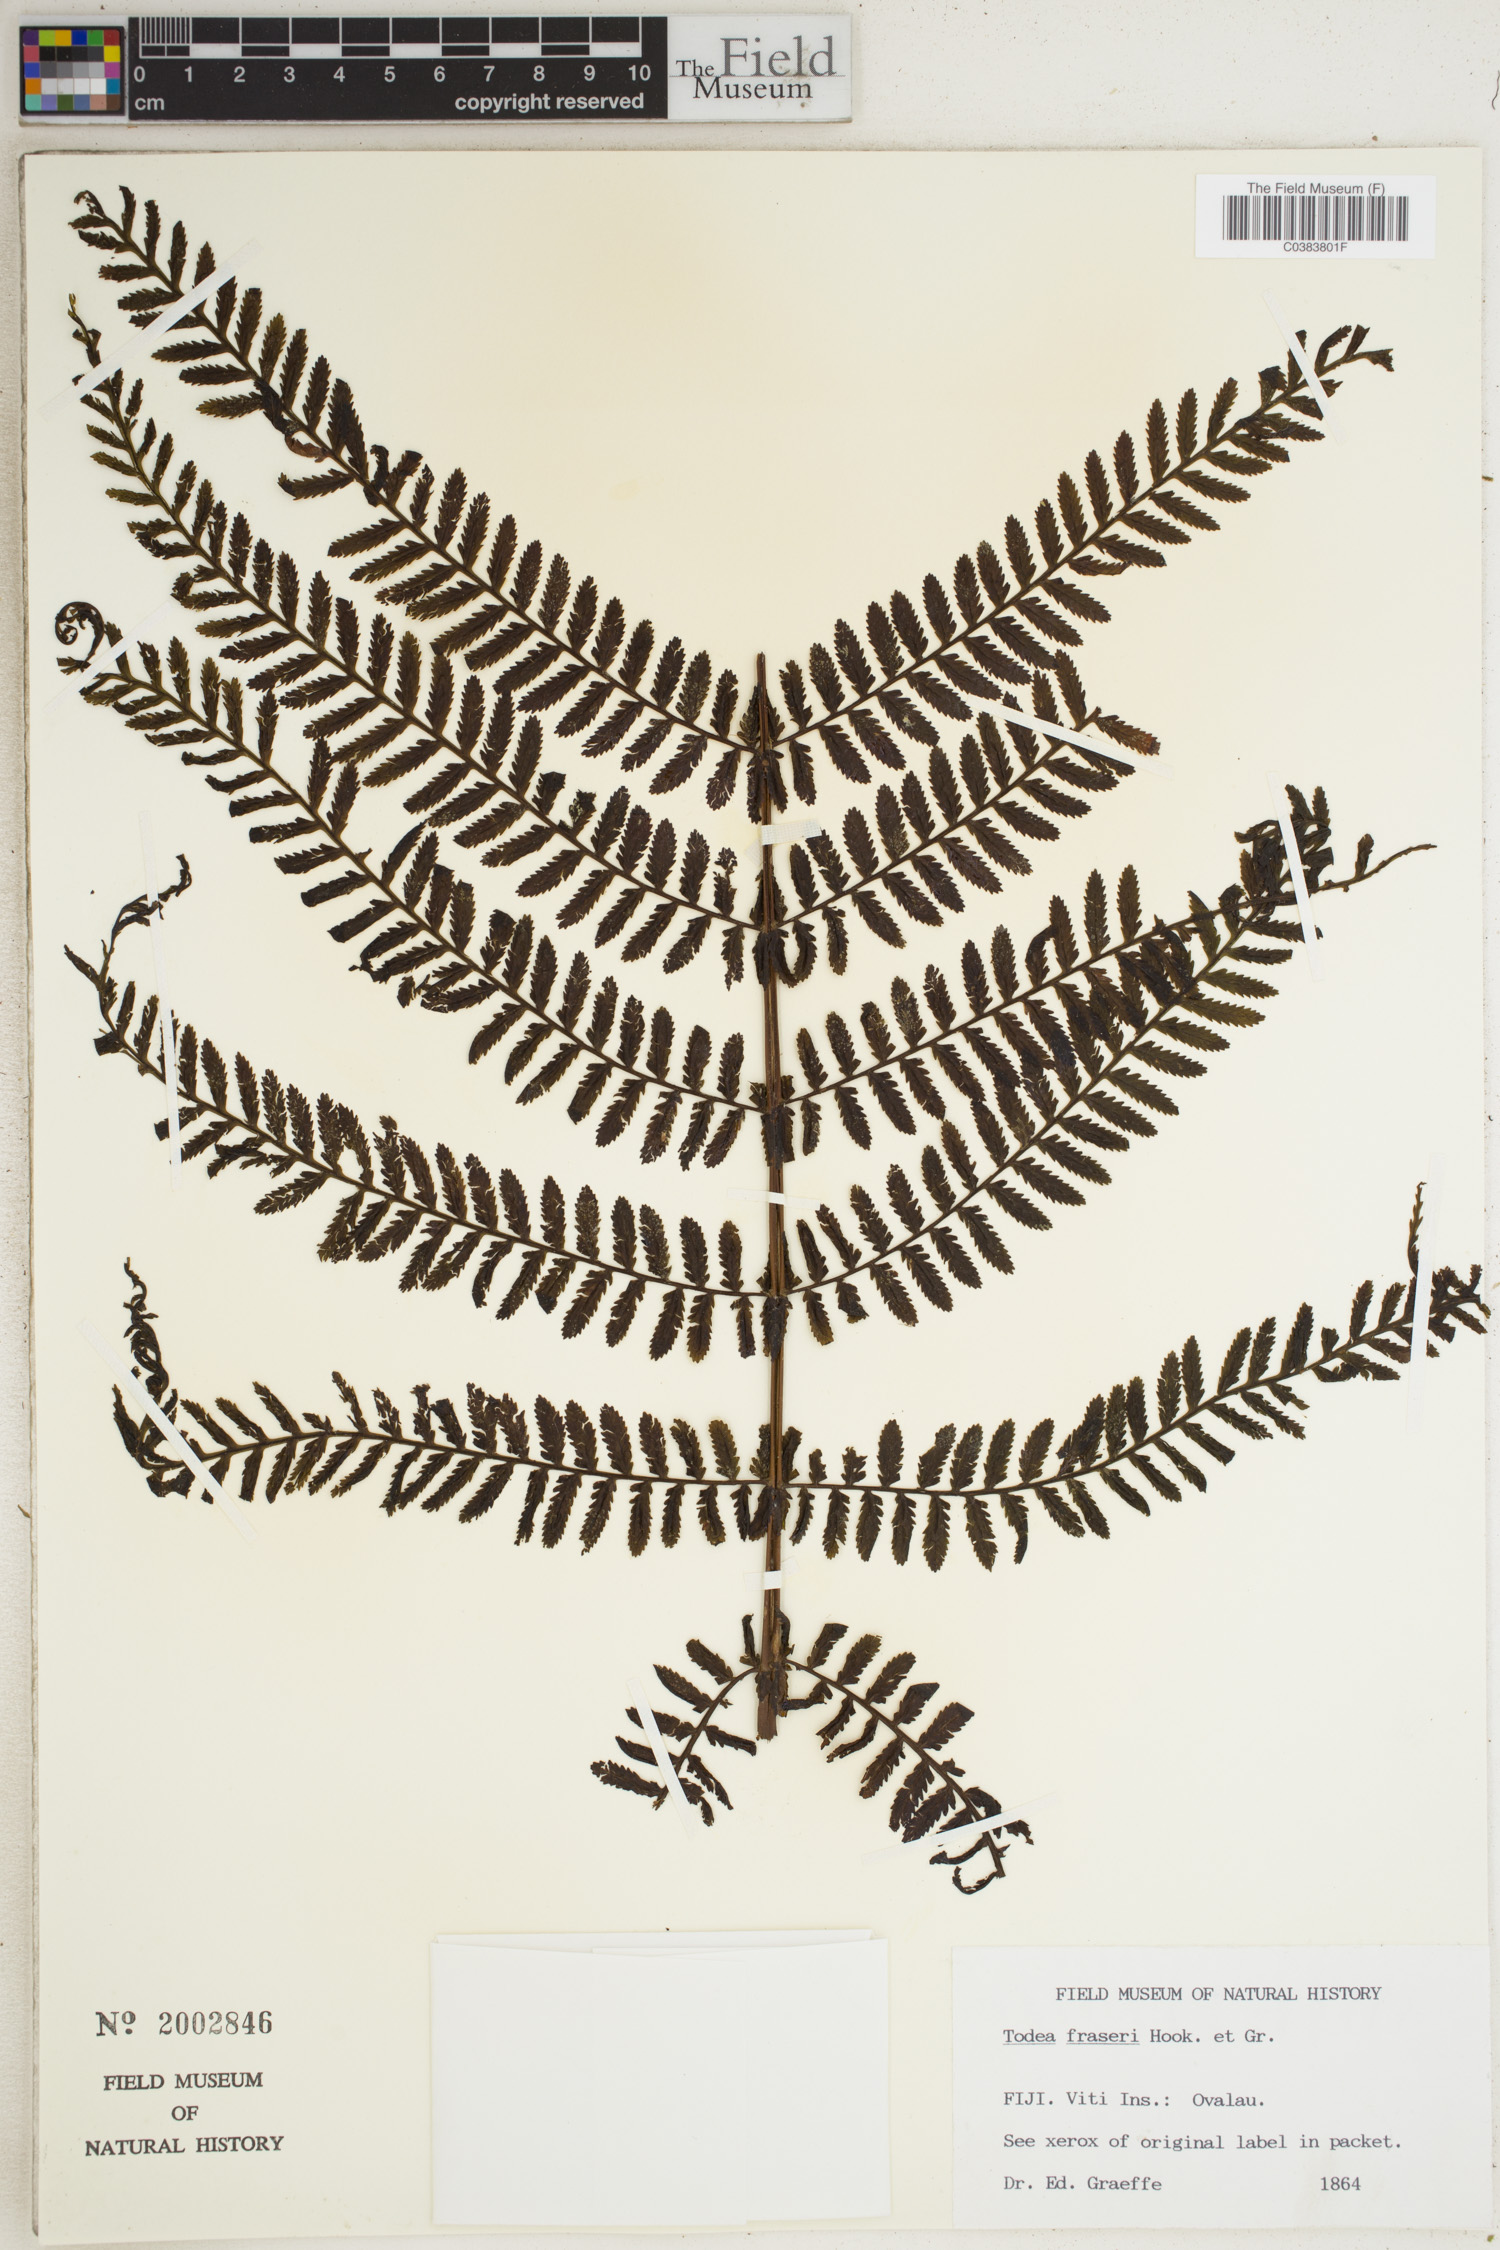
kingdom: Plantae
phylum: Tracheophyta
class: Polypodiopsida
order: Osmundales
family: Osmundaceae
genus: Leptopteris
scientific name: Leptopteris fraseri
